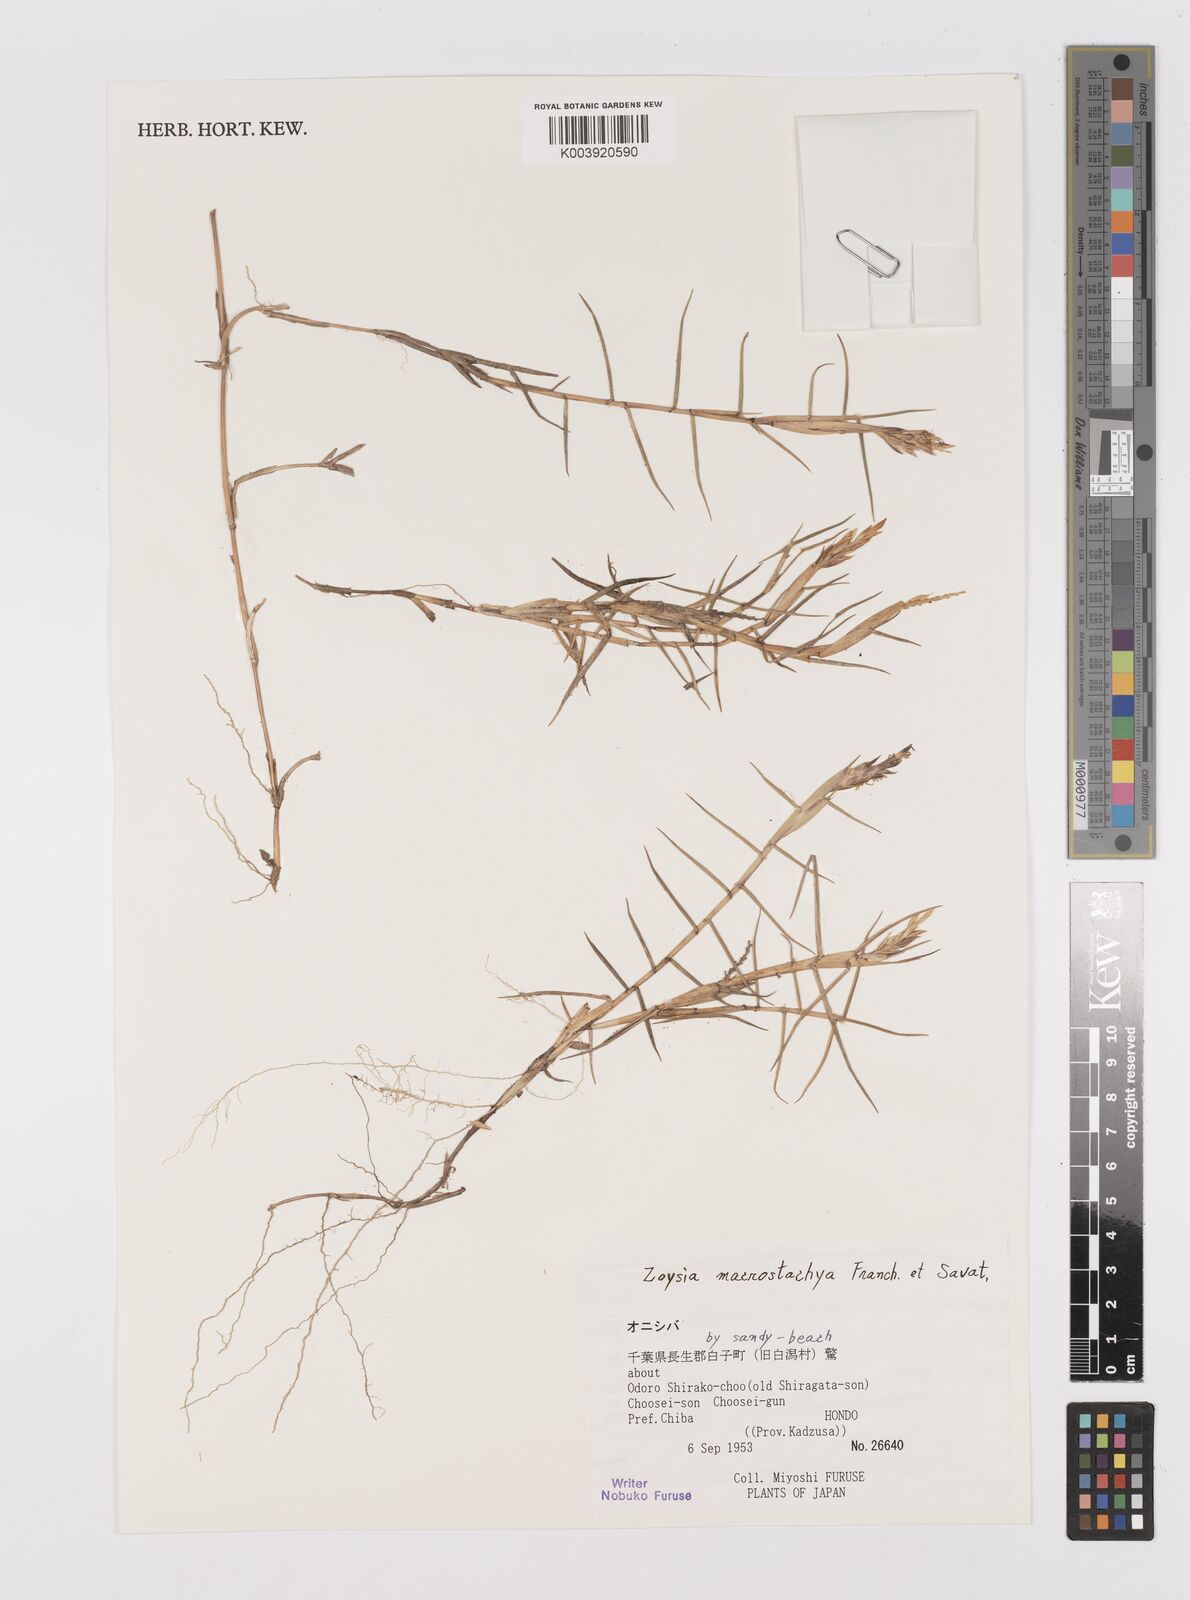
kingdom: Plantae
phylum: Tracheophyta
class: Liliopsida
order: Poales
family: Poaceae
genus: Zoysia
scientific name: Zoysia macrostachya
